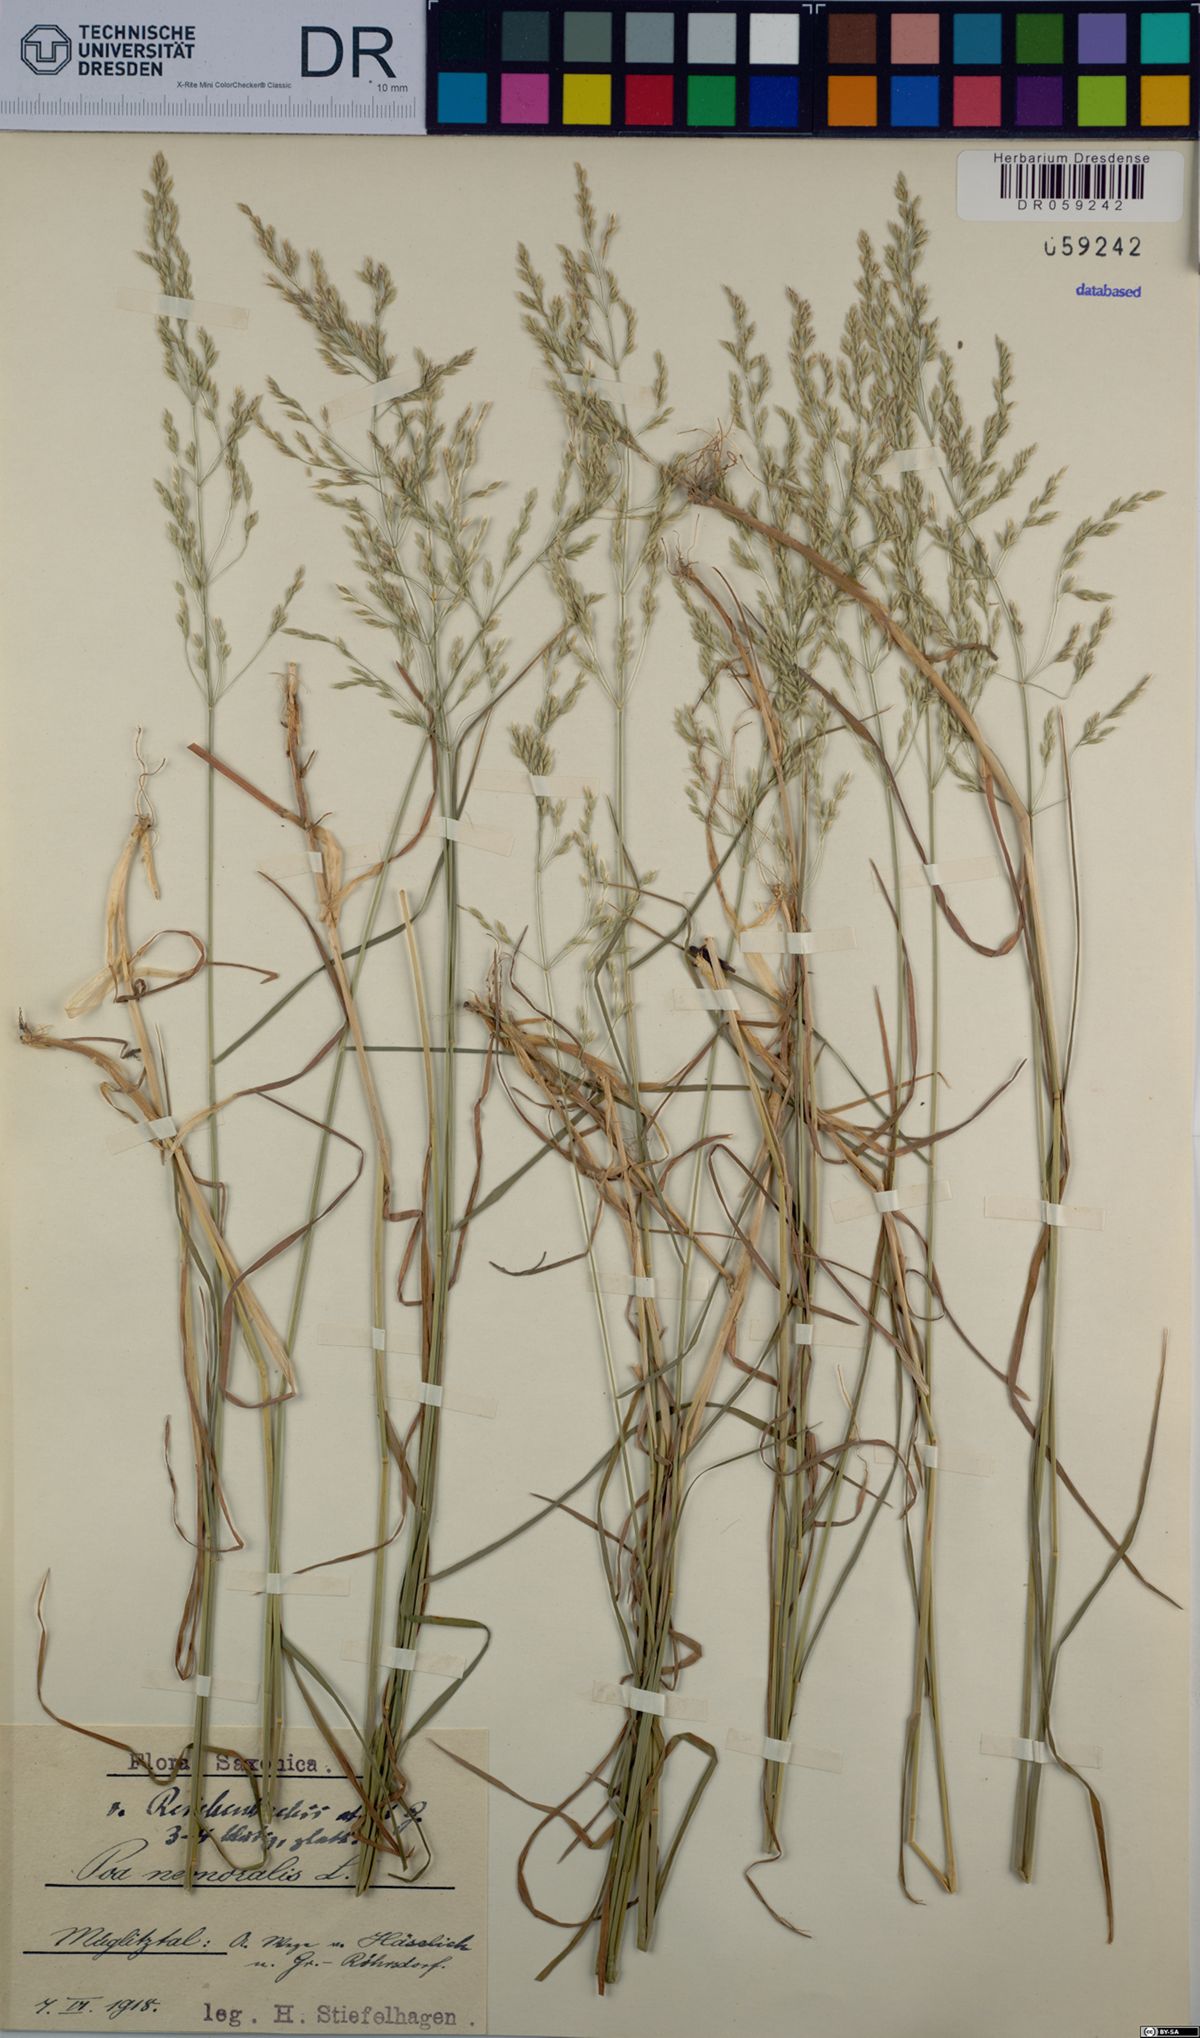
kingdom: Plantae
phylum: Tracheophyta
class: Liliopsida
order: Poales
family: Poaceae
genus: Poa
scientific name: Poa nemoralis
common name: Wood bluegrass
